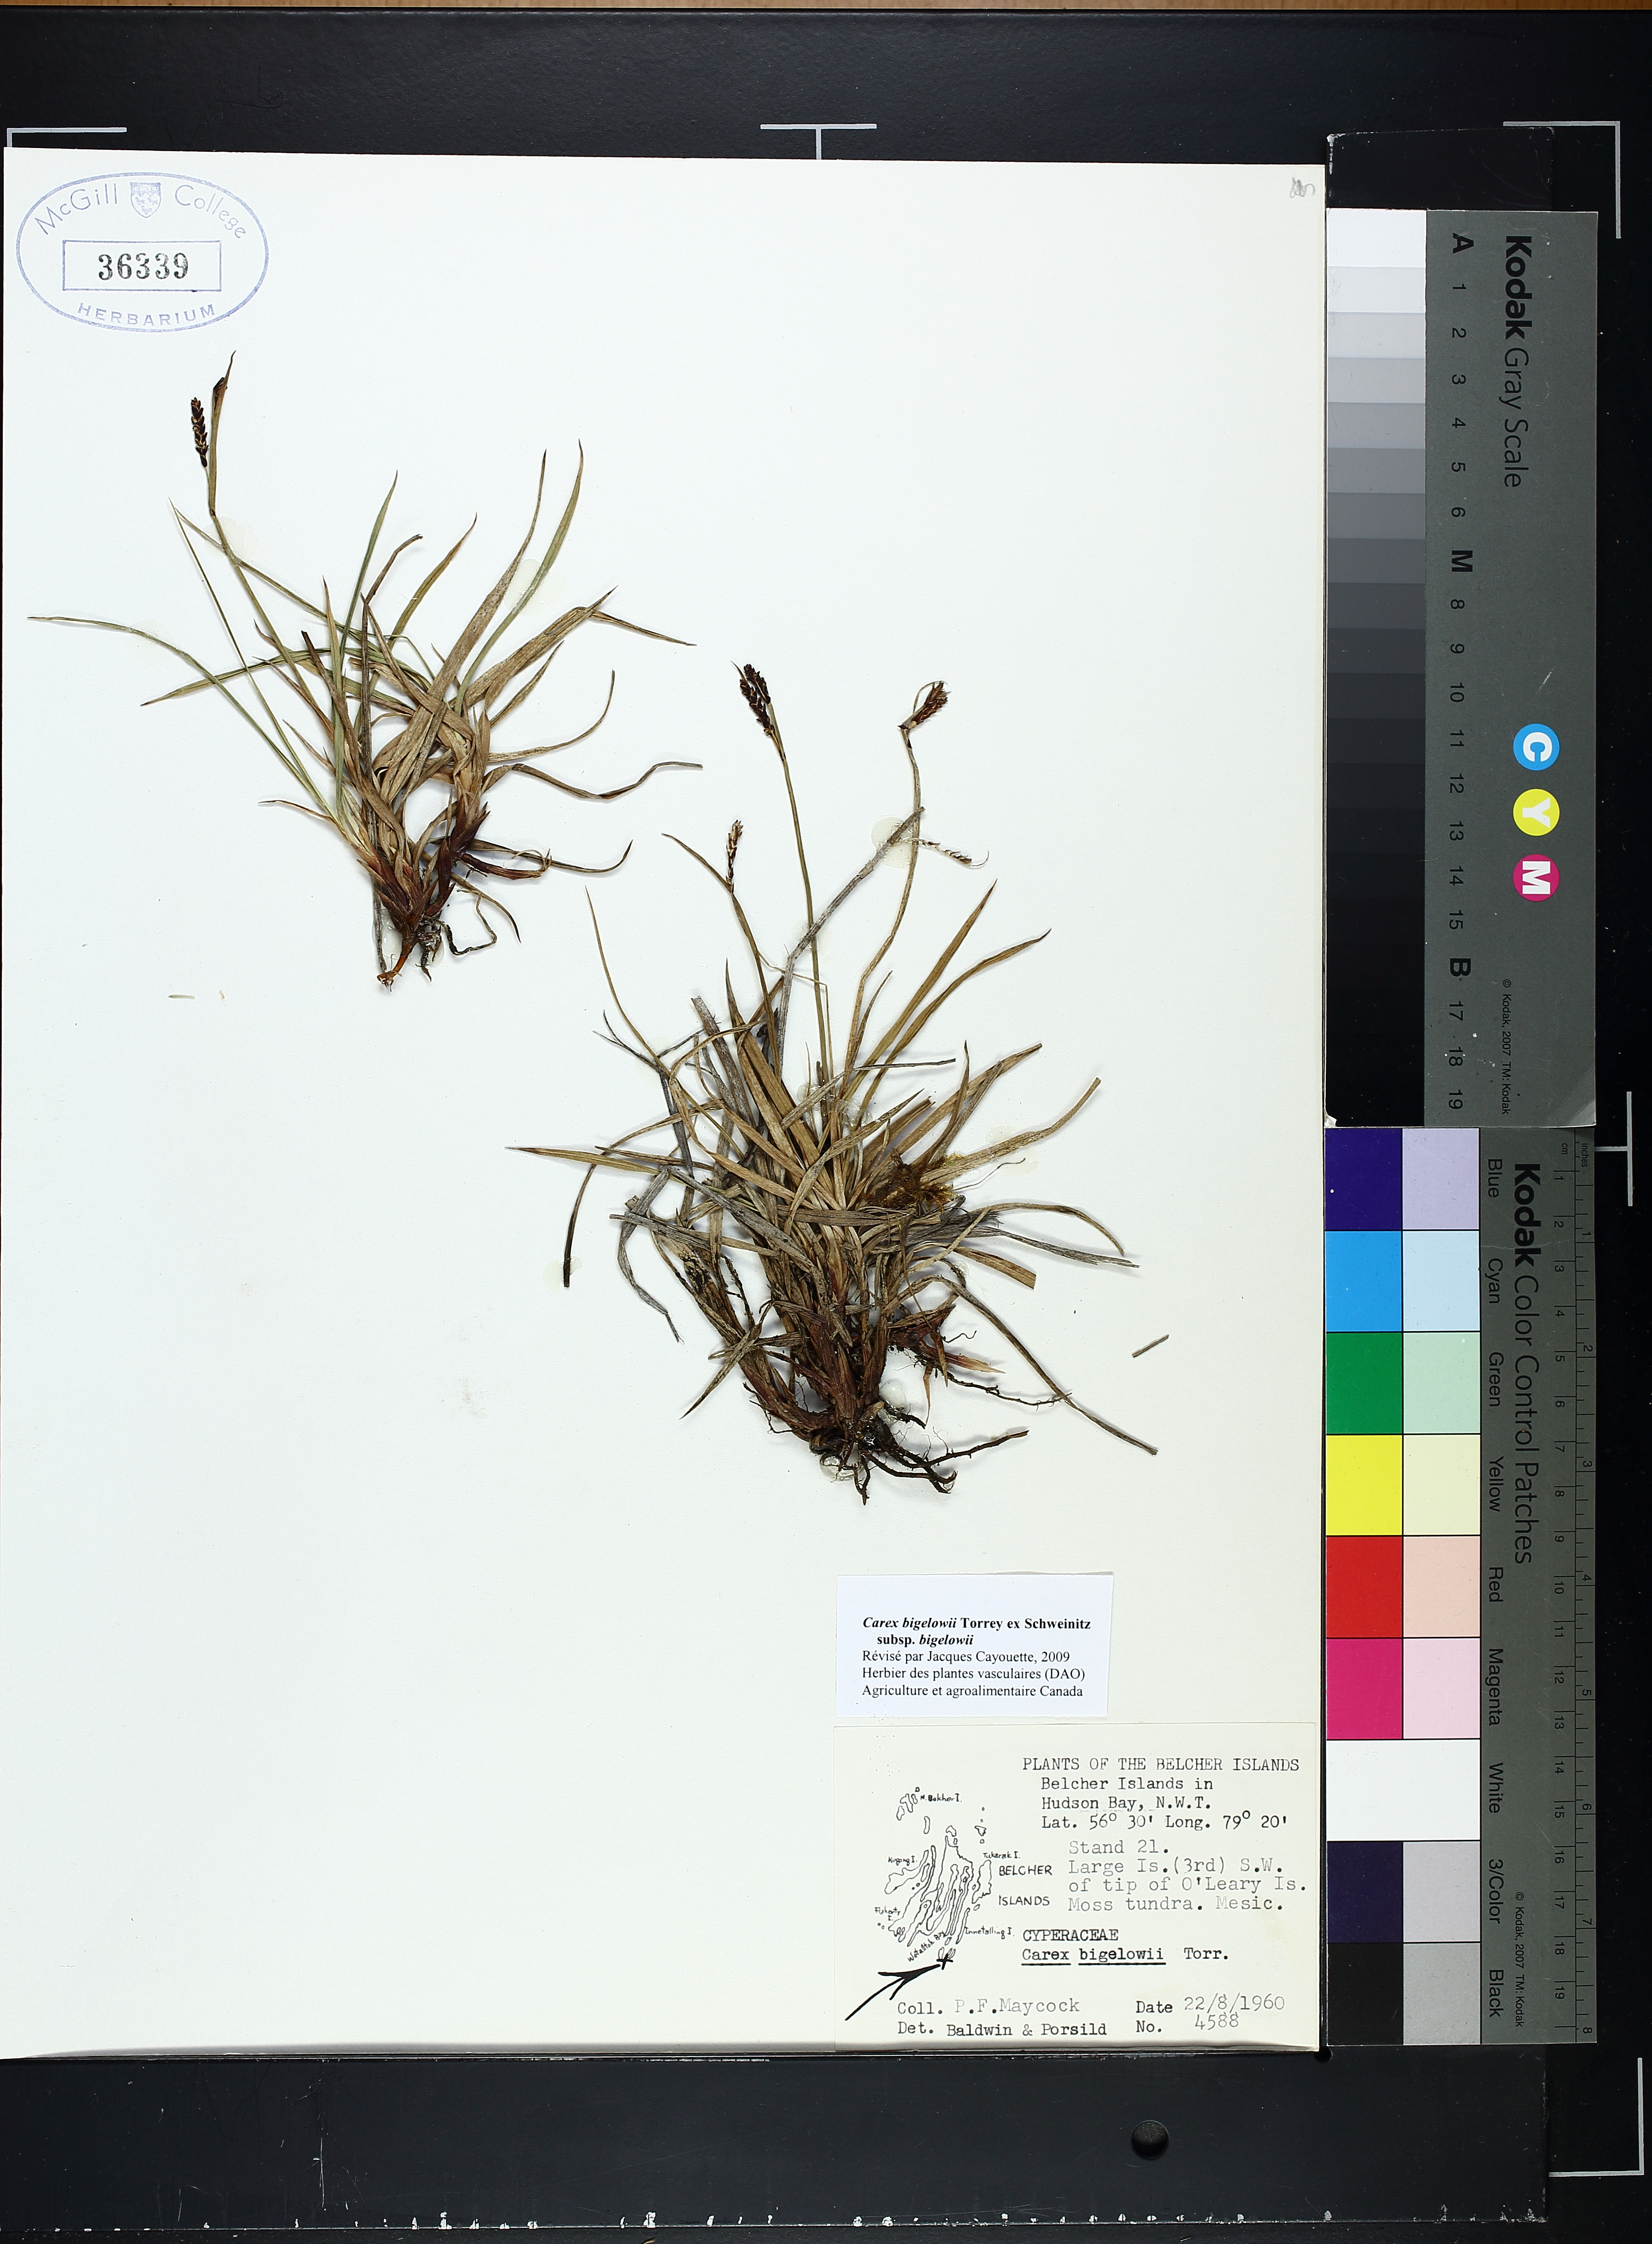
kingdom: Plantae
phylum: Tracheophyta
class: Liliopsida
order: Poales
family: Cyperaceae
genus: Carex
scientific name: Carex bigelowii
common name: Stiff sedge
